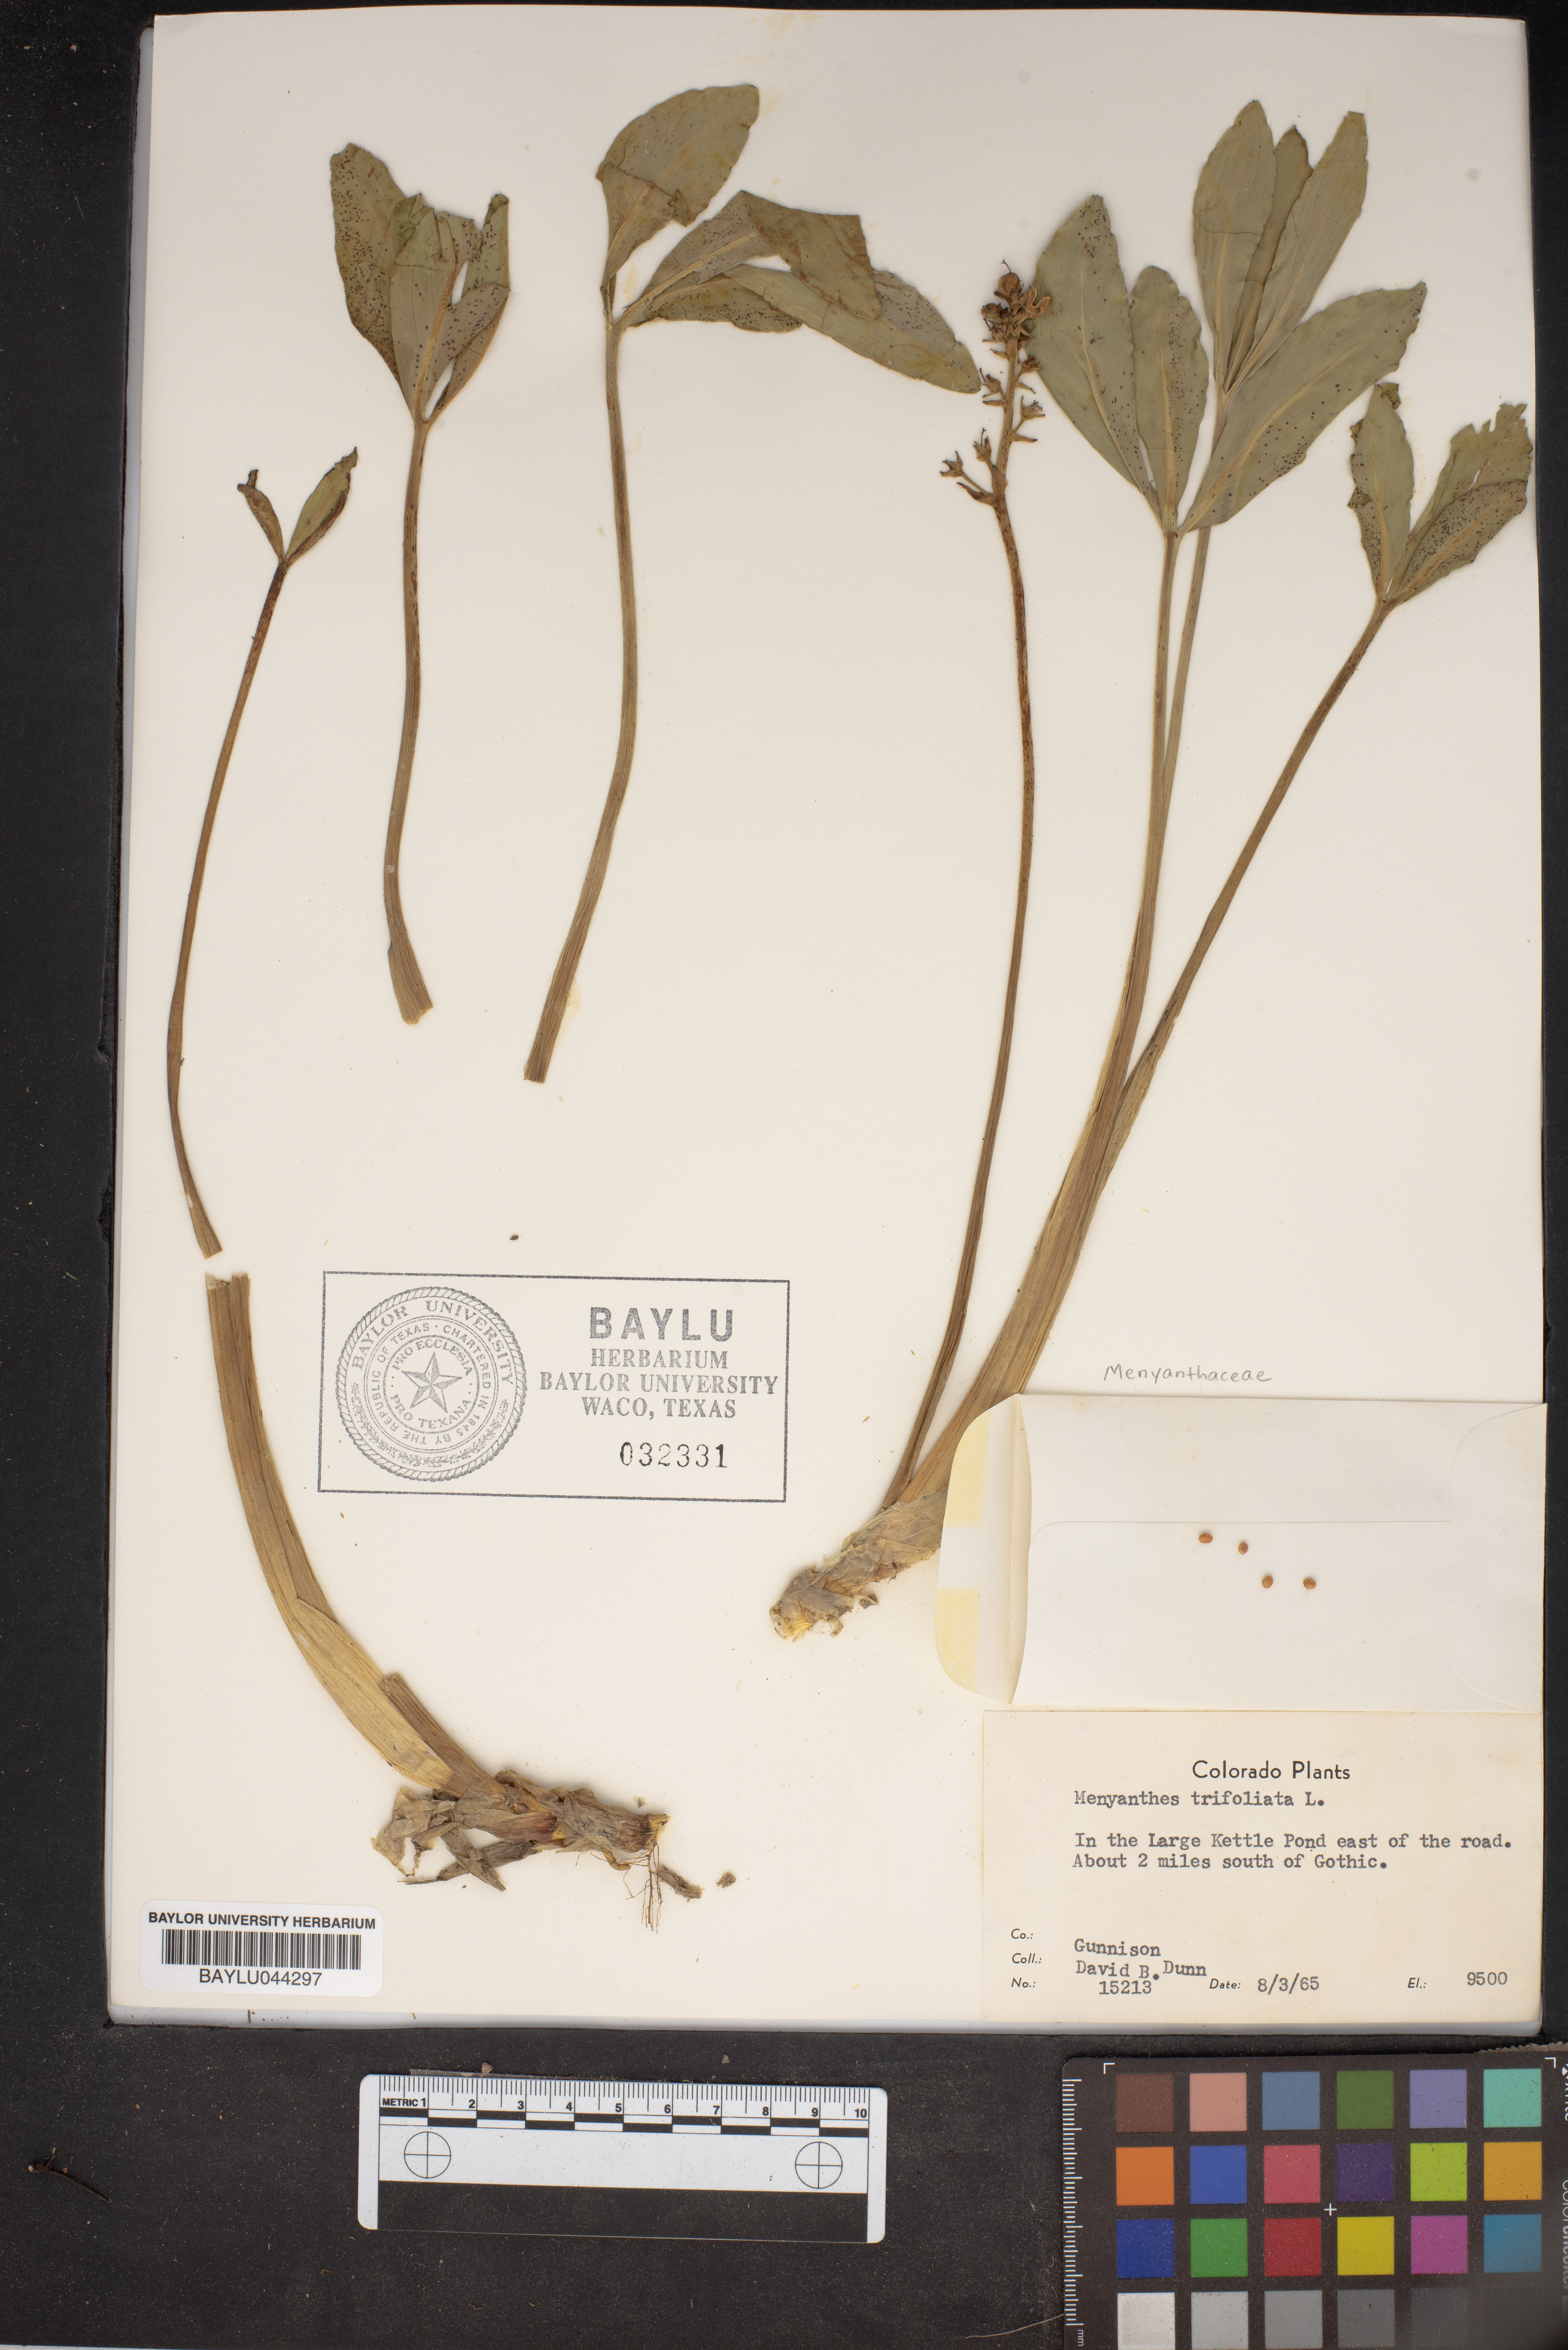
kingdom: Plantae
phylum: Tracheophyta
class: Magnoliopsida
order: Asterales
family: Menyanthaceae
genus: Menyanthes
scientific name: Menyanthes trifoliata
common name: Bogbean
